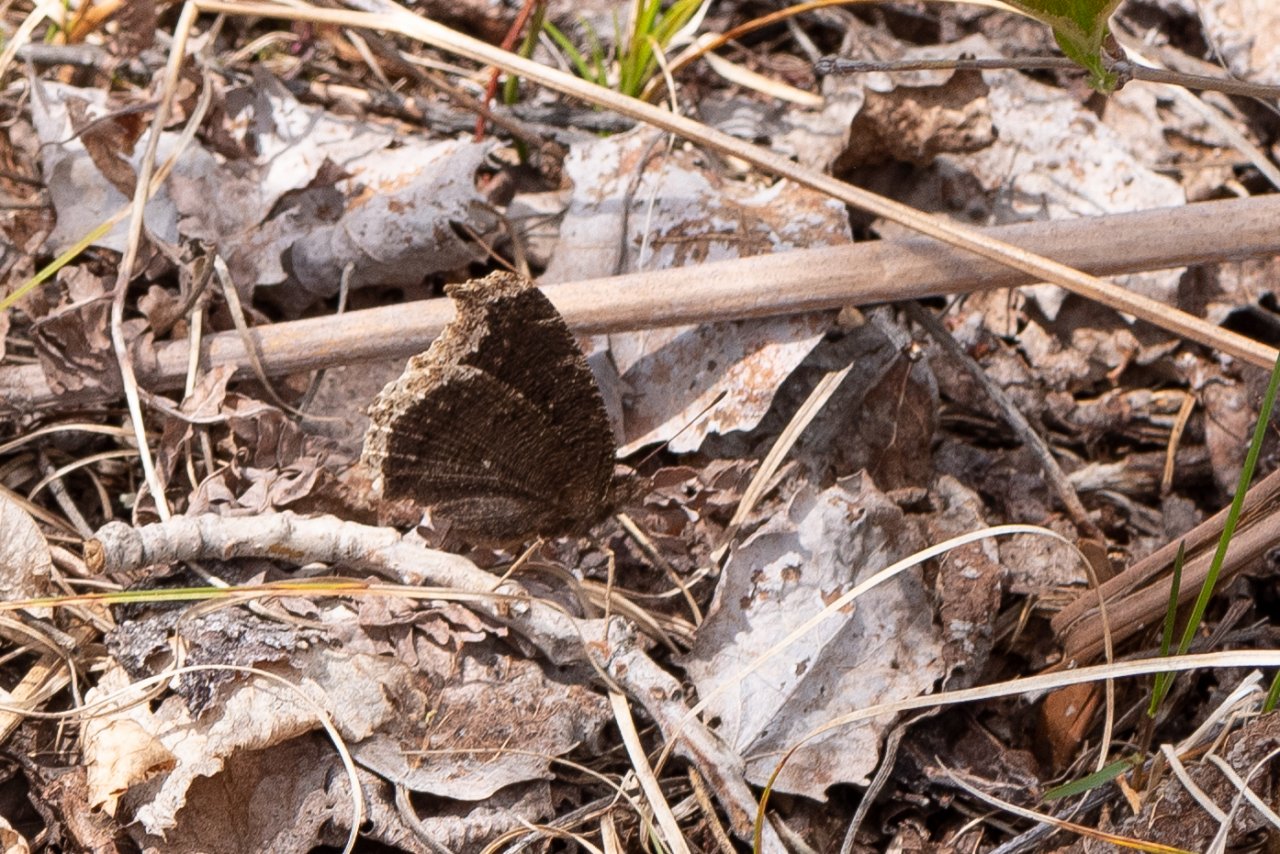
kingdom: Animalia
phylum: Arthropoda
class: Insecta
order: Lepidoptera
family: Nymphalidae
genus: Nymphalis
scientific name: Nymphalis antiopa
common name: Mourning Cloak
